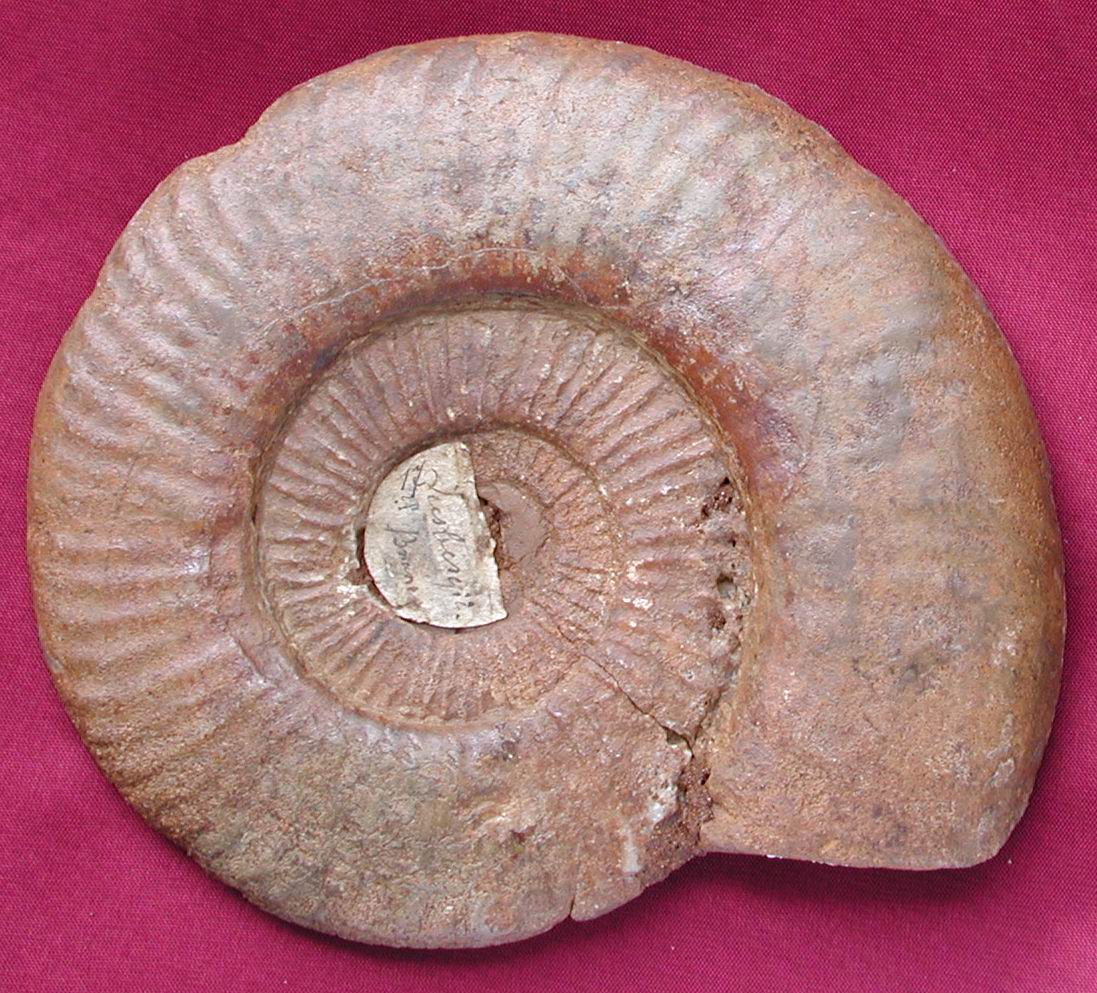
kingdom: Animalia
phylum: Mollusca
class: Cephalopoda
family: Hildoceratidae
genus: Dumortieria
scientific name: Dumortieria
